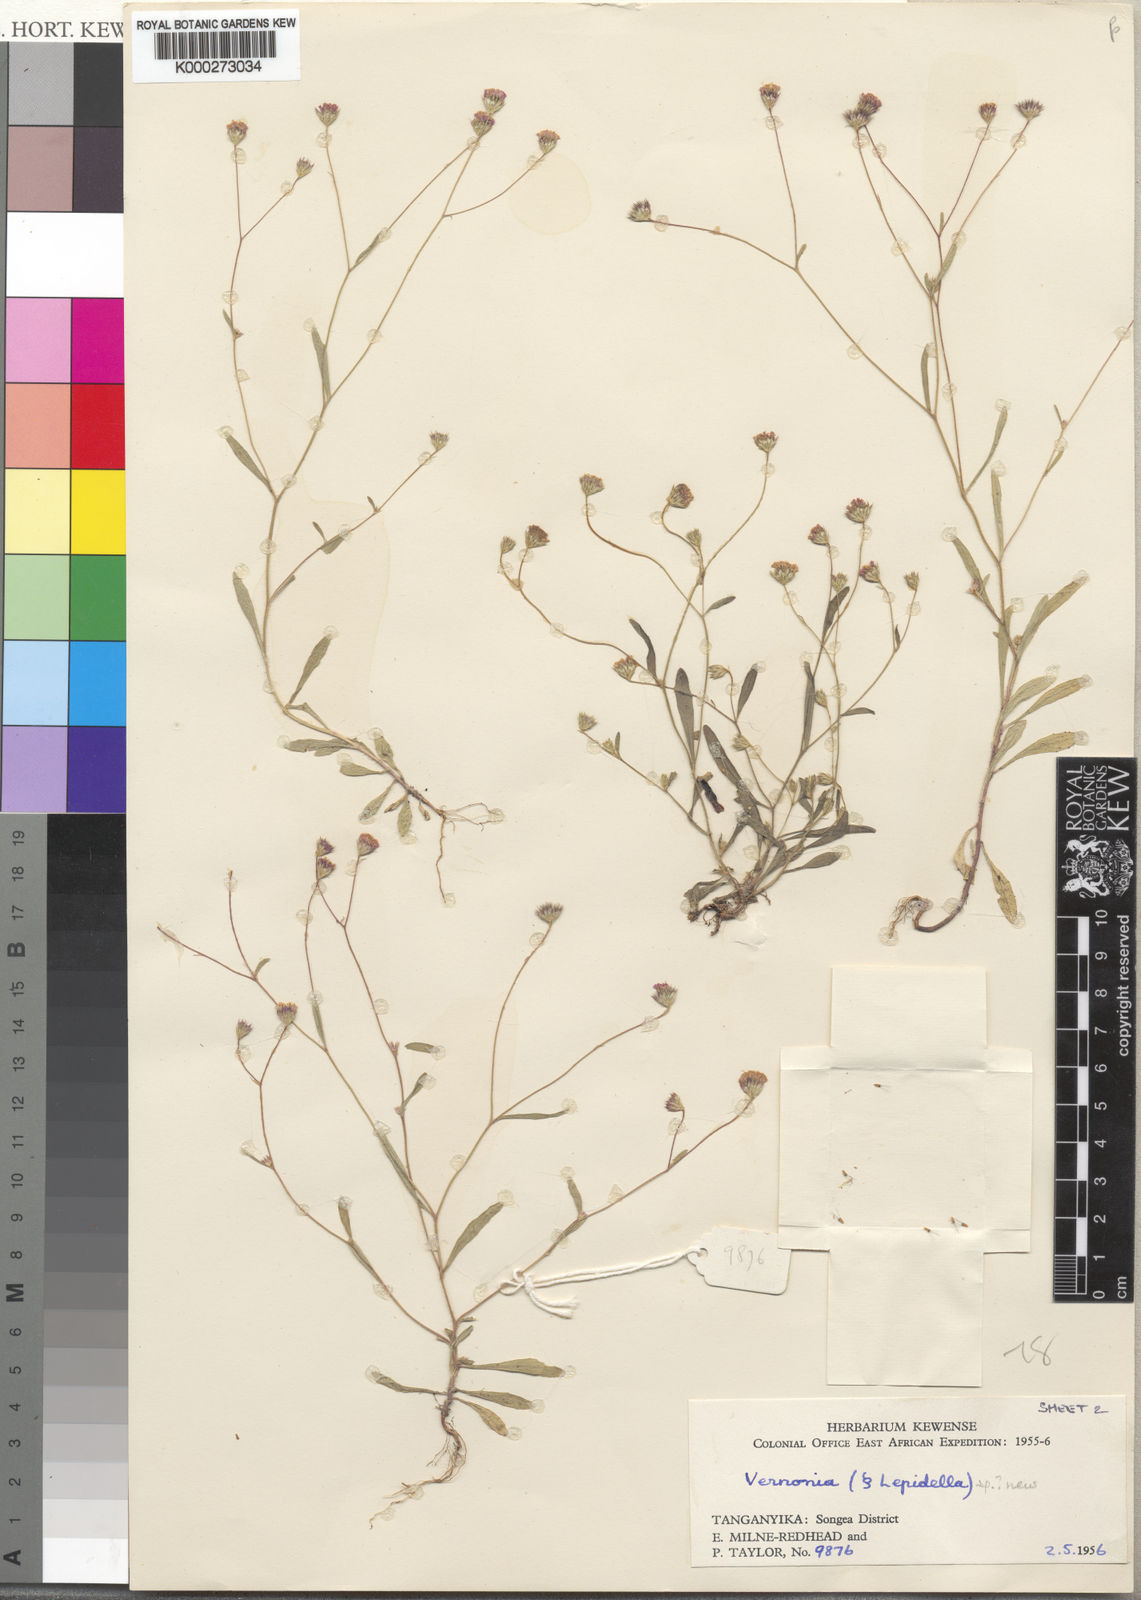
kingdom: Plantae
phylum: Tracheophyta
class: Magnoliopsida
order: Asterales
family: Asteraceae
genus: Vernonia
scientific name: Vernonia melanocoma
